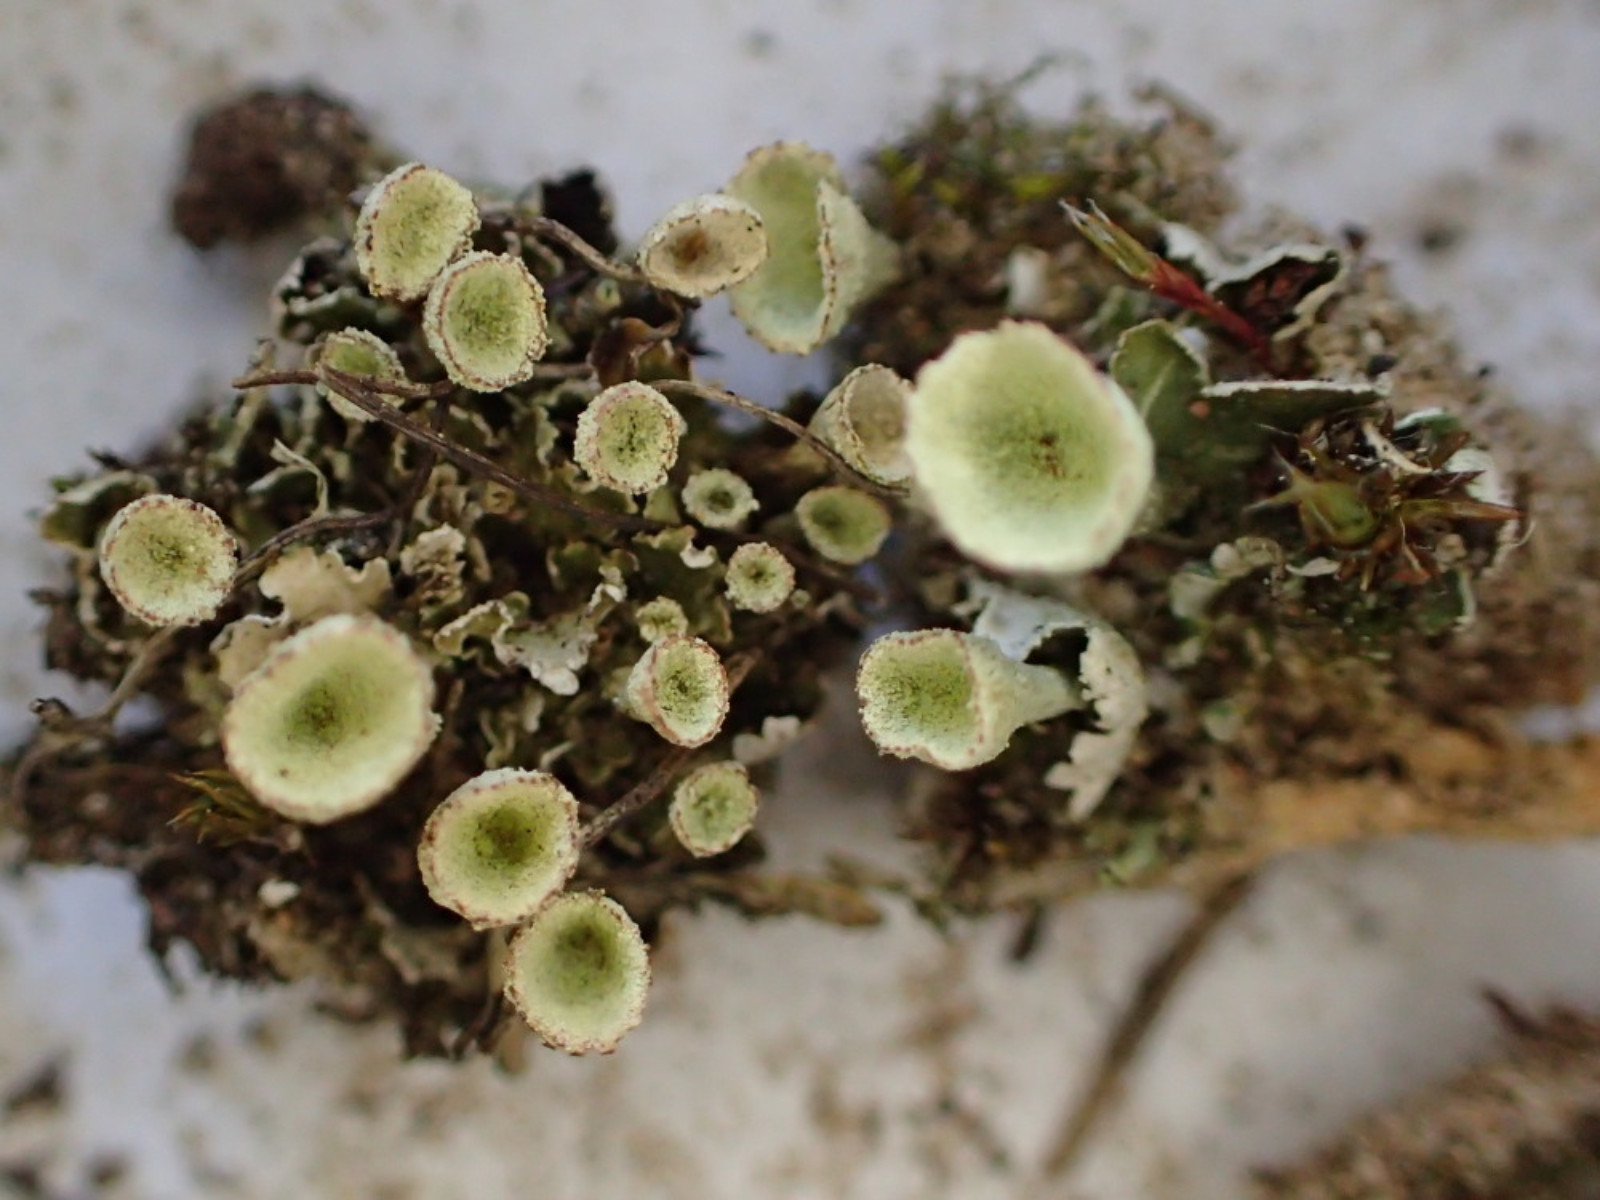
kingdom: Fungi
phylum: Ascomycota
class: Lecanoromycetes
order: Lecanorales
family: Cladoniaceae
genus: Cladonia
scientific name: Cladonia humilis
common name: lav bægerlav
